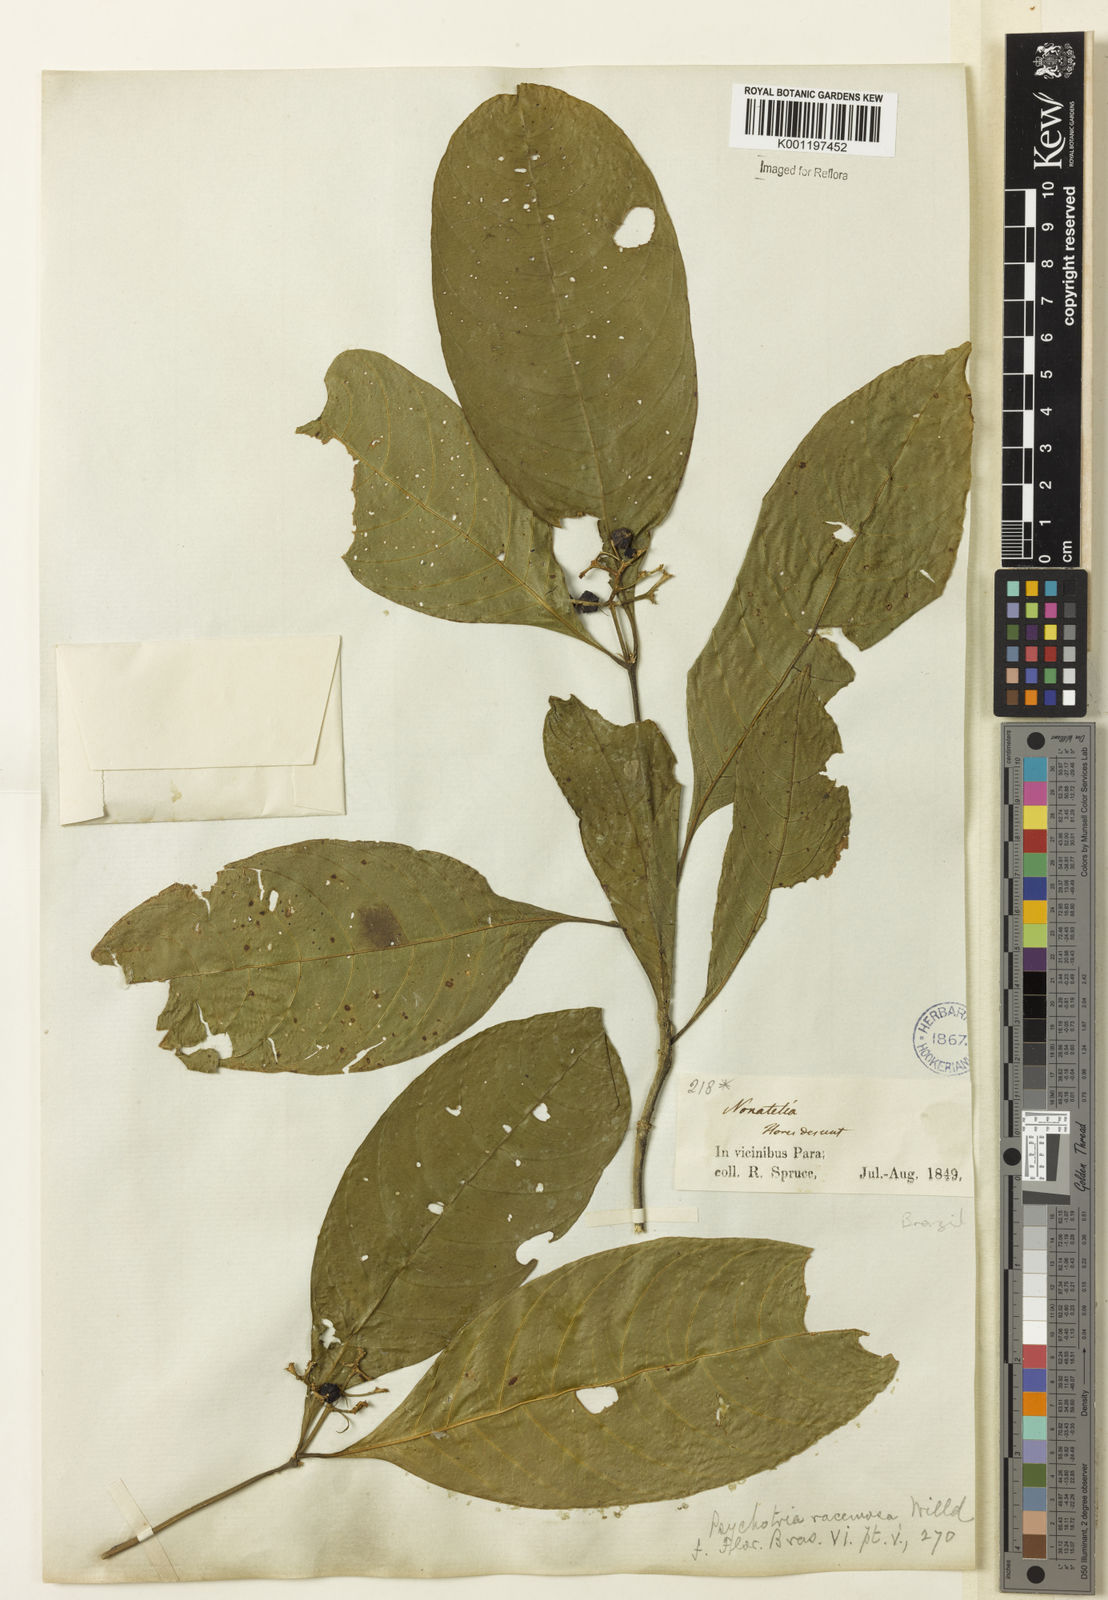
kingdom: Plantae
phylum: Tracheophyta
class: Magnoliopsida
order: Gentianales
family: Rubiaceae
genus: Palicourea
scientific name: Palicourea racemosa
